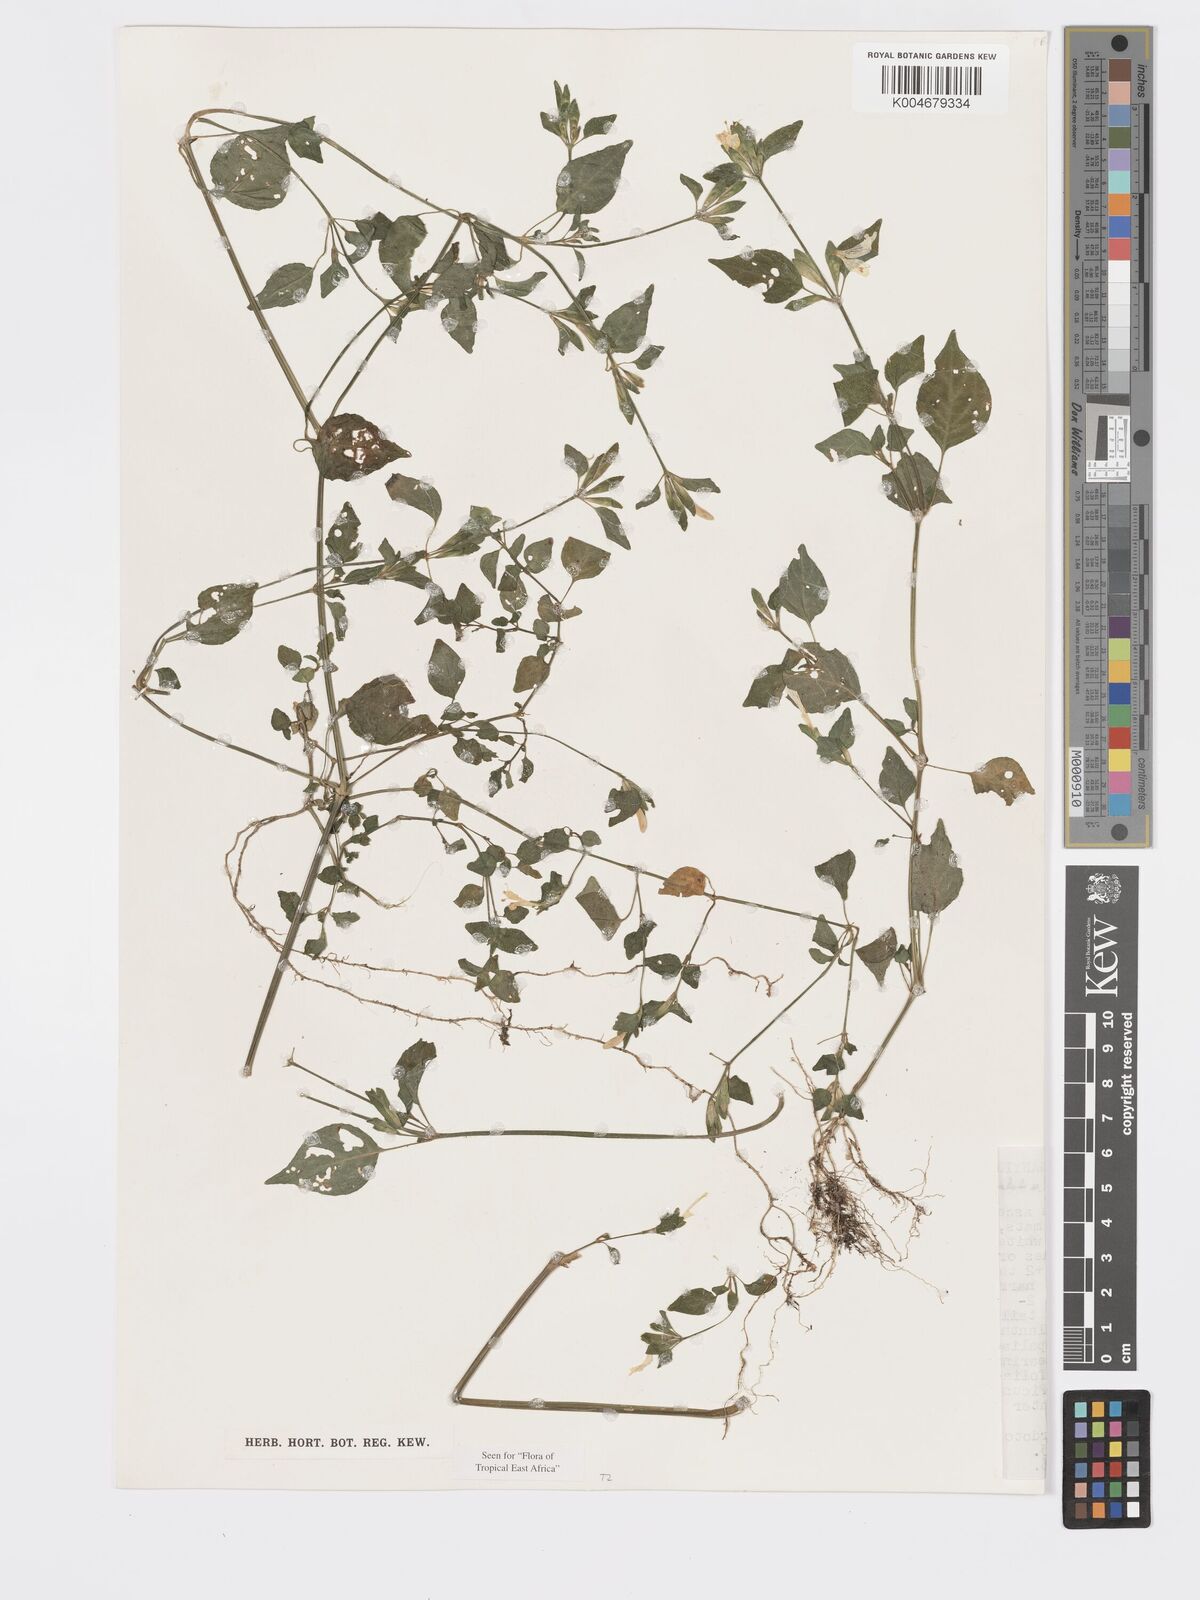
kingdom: Plantae
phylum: Tracheophyta
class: Magnoliopsida
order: Lamiales
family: Acanthaceae
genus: Hypoestes
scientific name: Hypoestes triflora
